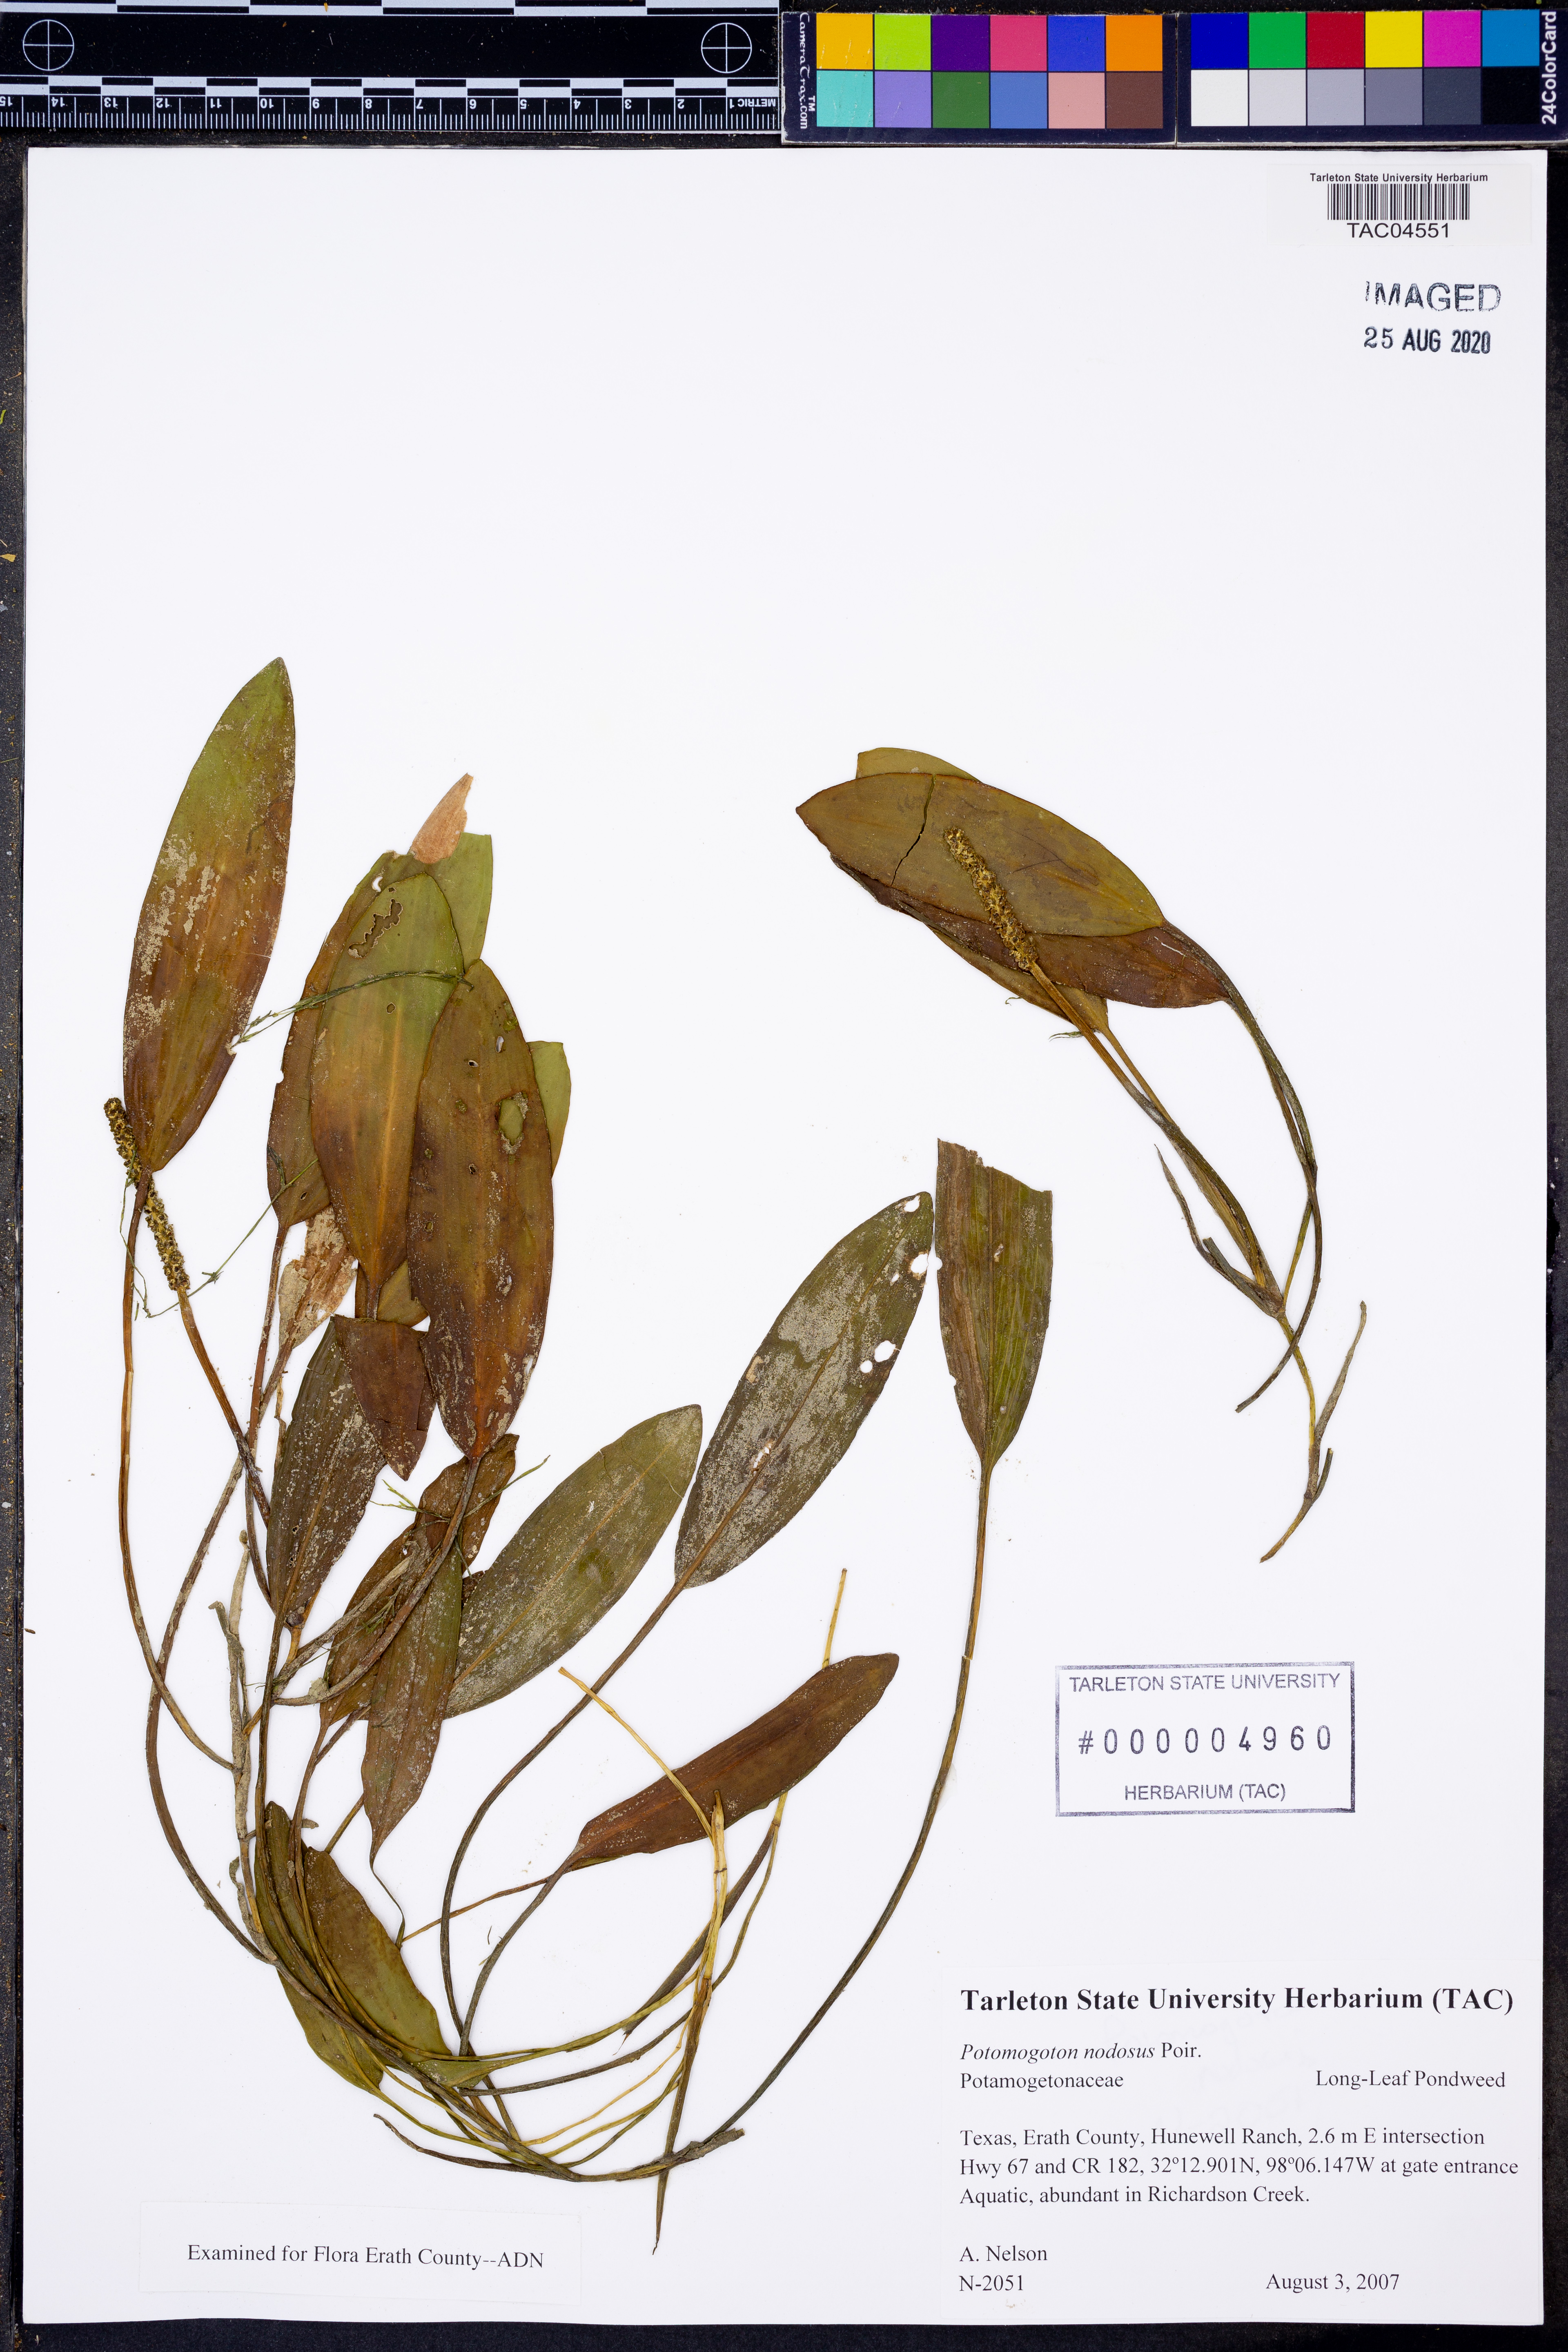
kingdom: Plantae
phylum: Tracheophyta
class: Liliopsida
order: Alismatales
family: Potamogetonaceae
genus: Potamogeton
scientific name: Potamogeton nodosus
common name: Loddon pondweed
